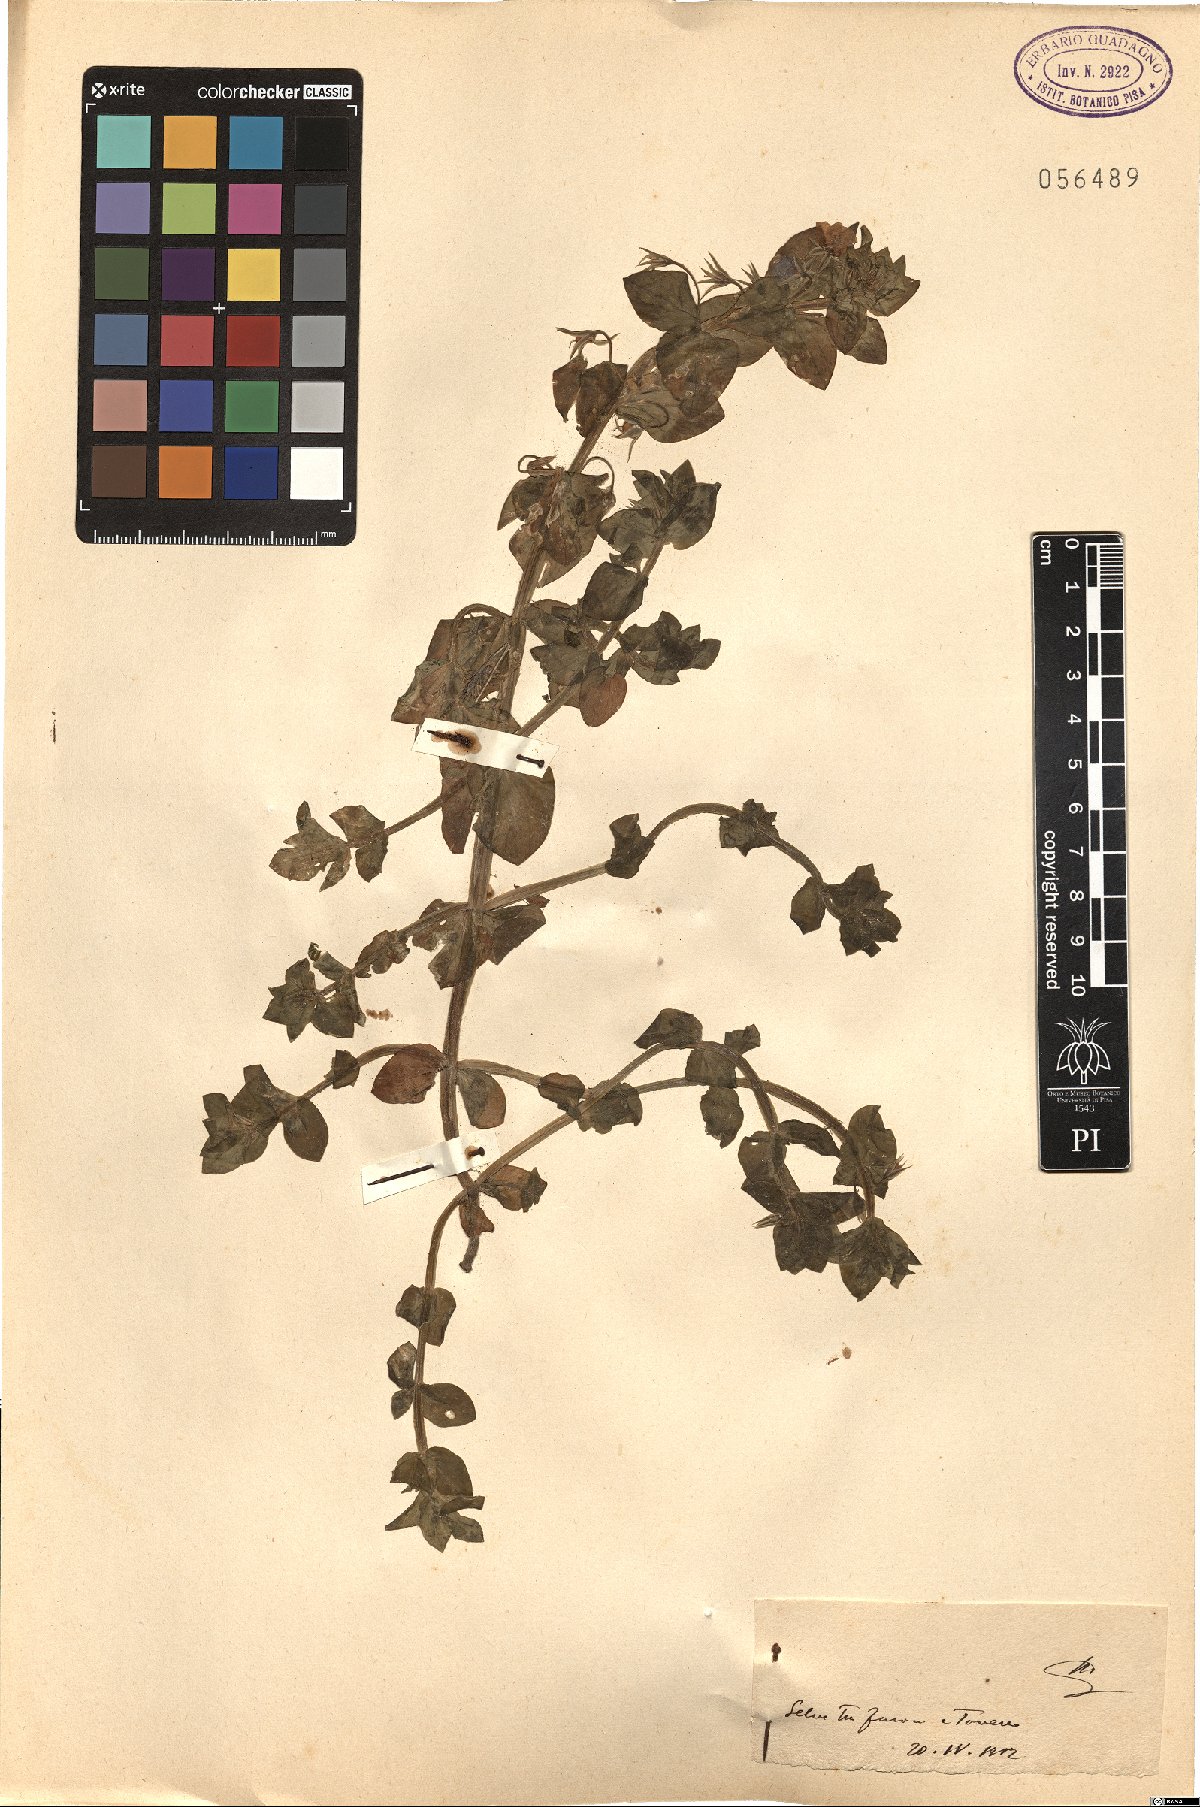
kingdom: Plantae
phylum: Tracheophyta
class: Magnoliopsida
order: Ericales
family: Primulaceae
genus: Lysimachia
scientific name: Lysimachia Anagallis spec
